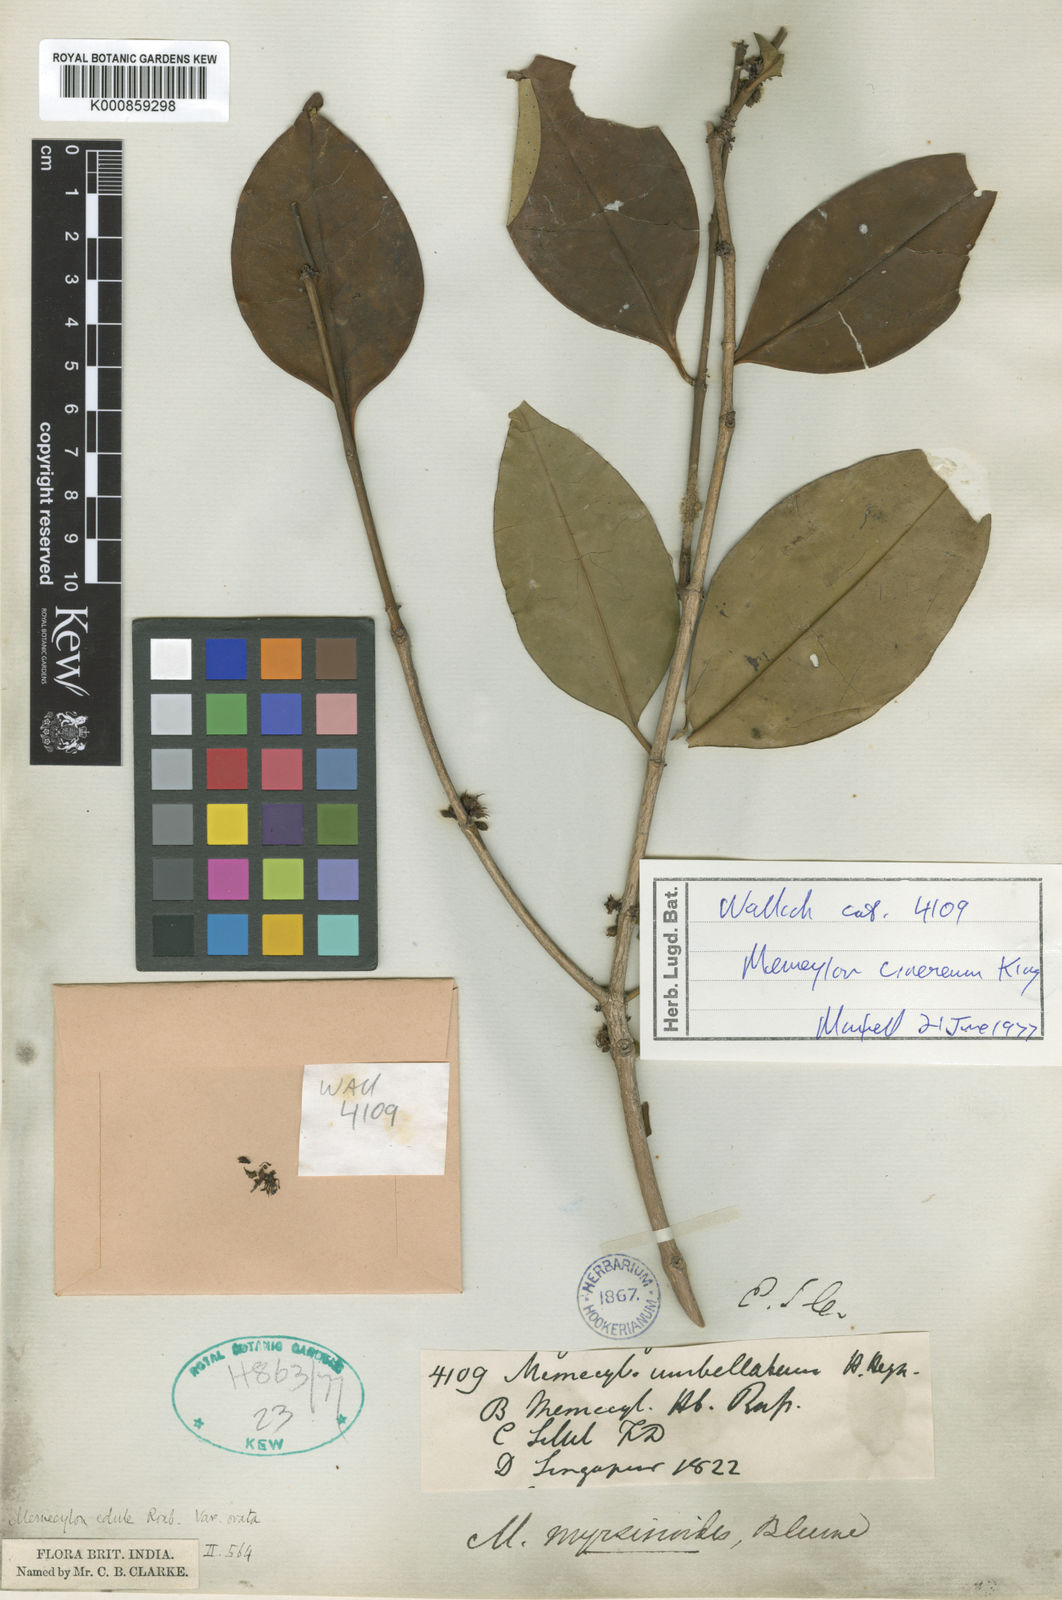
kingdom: Plantae
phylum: Tracheophyta
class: Magnoliopsida
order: Myrtales
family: Melastomataceae
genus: Memecylon
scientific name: Memecylon cinereum
